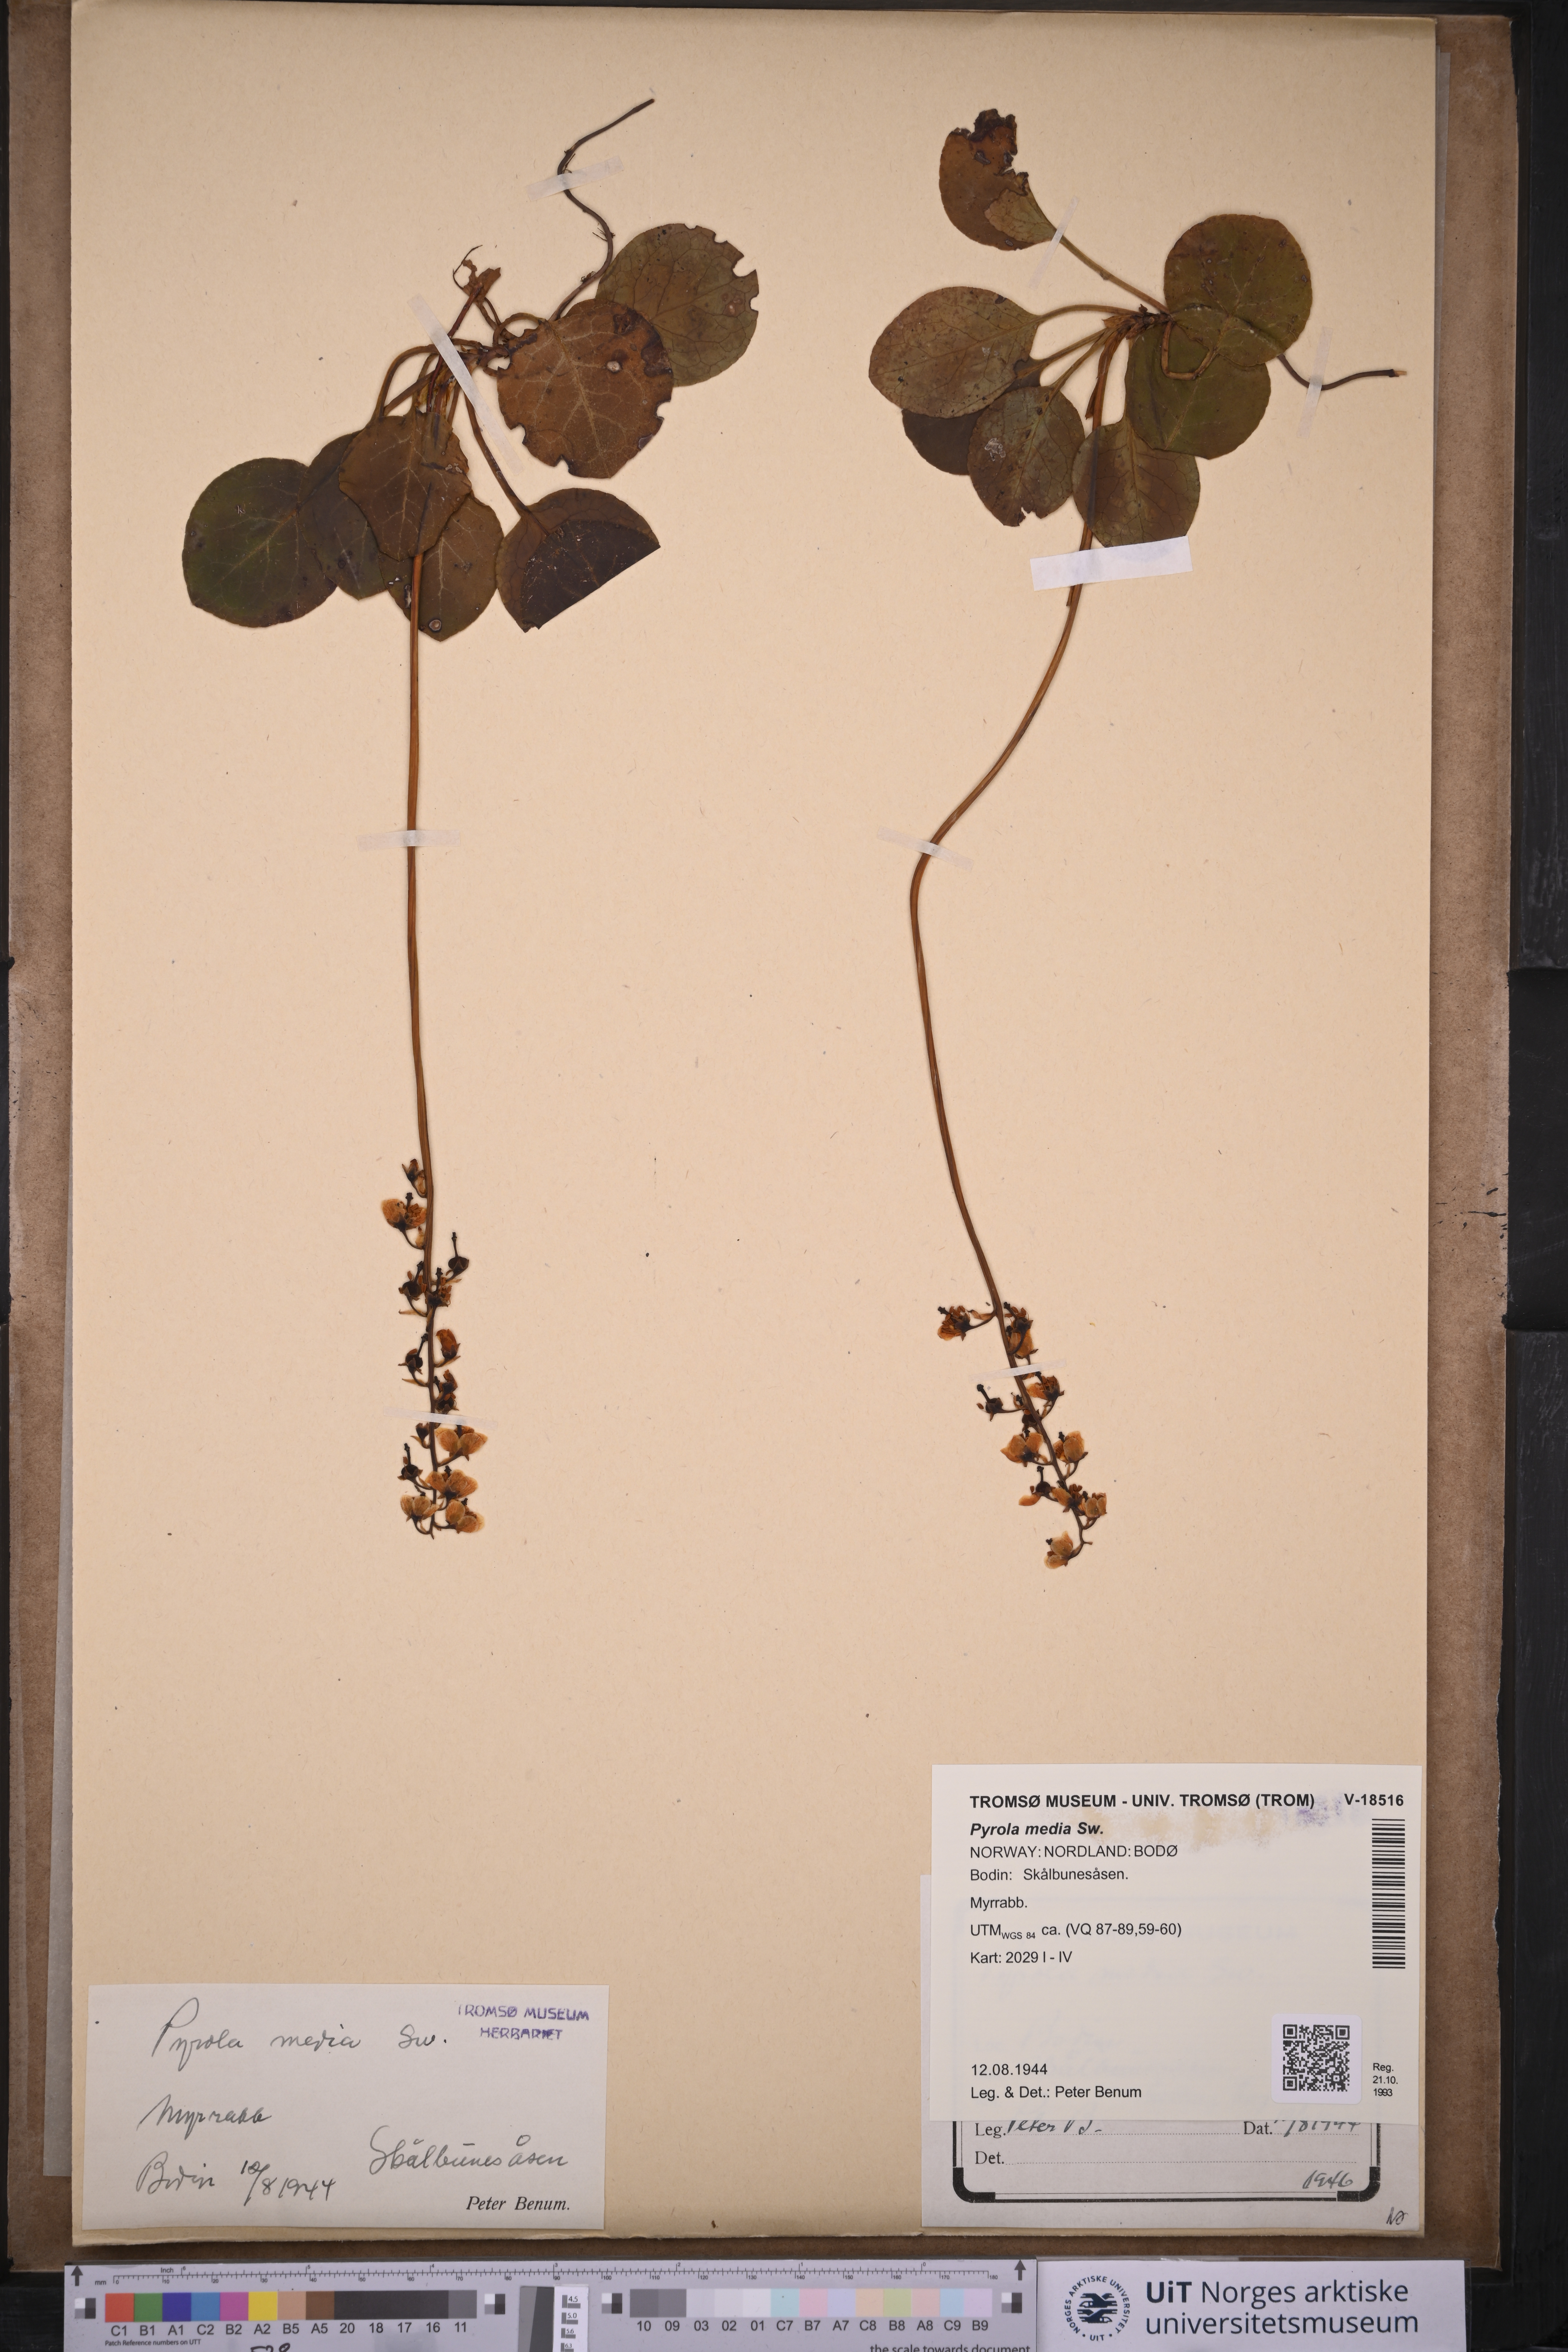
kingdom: Plantae
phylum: Tracheophyta
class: Magnoliopsida
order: Ericales
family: Ericaceae
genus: Pyrola
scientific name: Pyrola media
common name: Intermediate wintergreen
